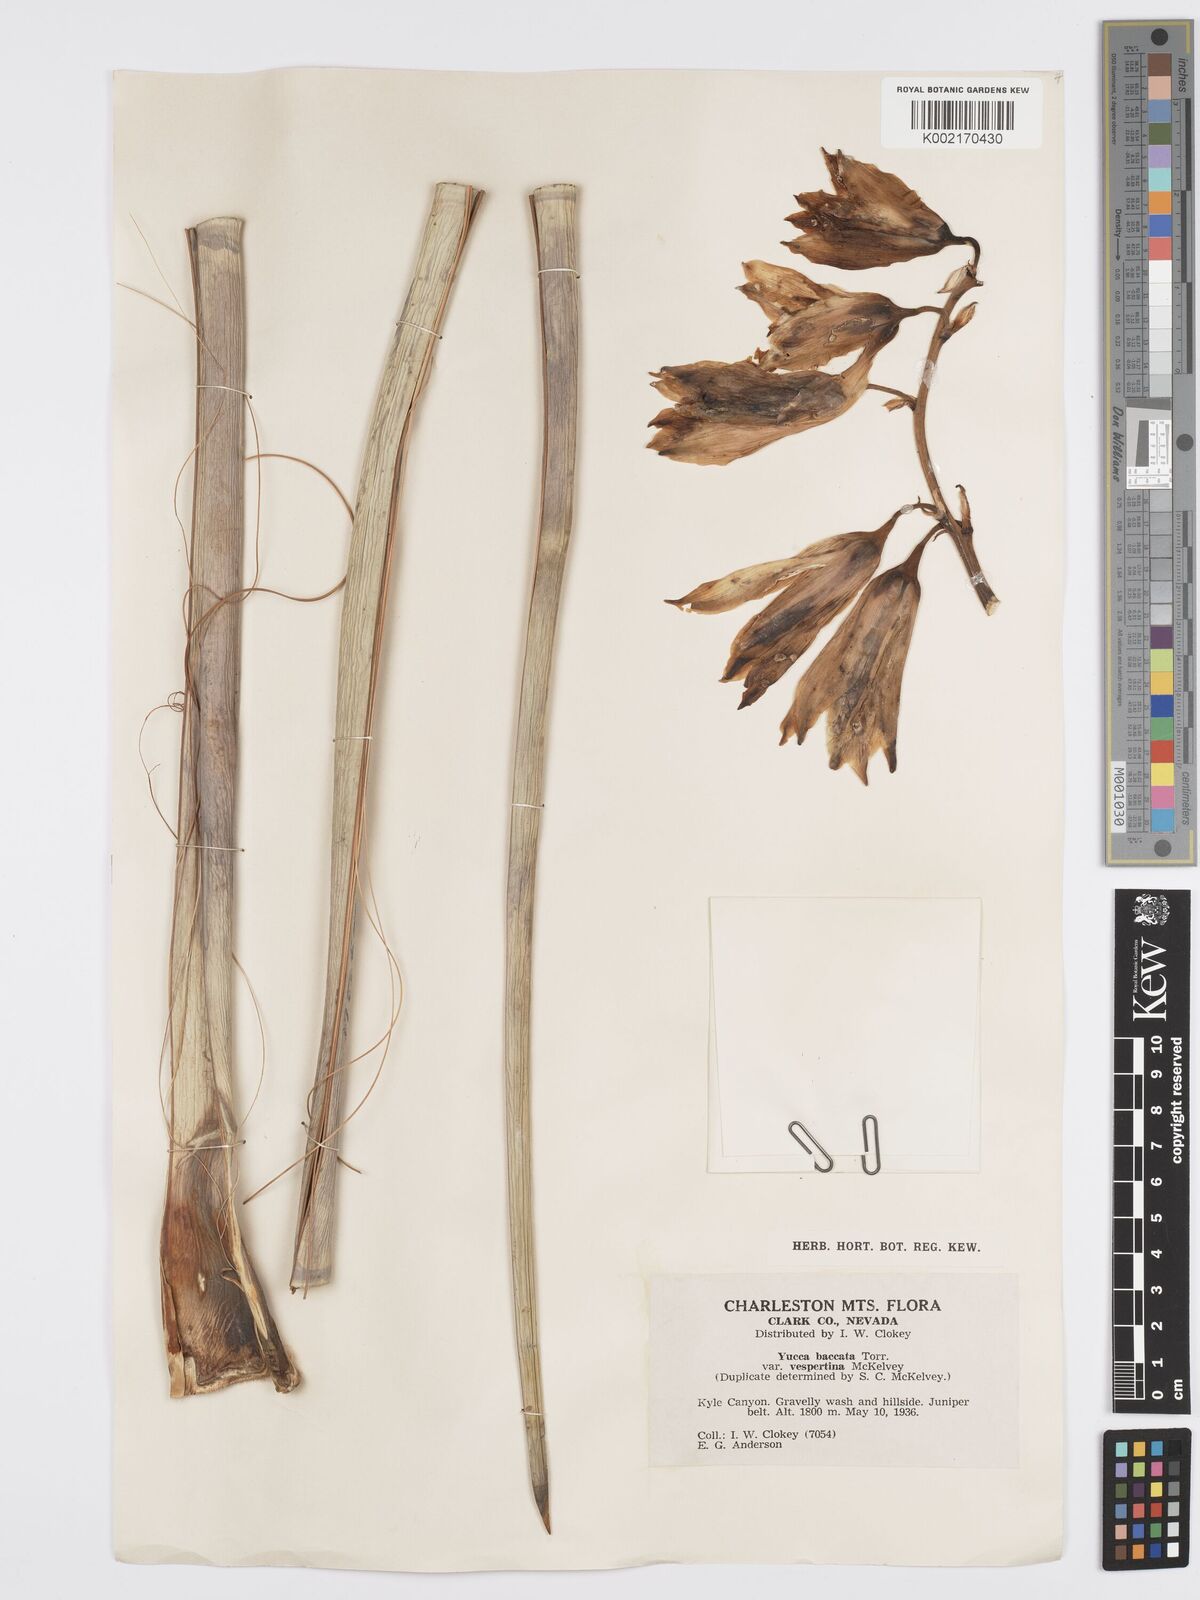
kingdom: Plantae
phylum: Tracheophyta
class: Liliopsida
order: Asparagales
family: Asparagaceae
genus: Yucca
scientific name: Yucca baccata
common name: Banana yucca
